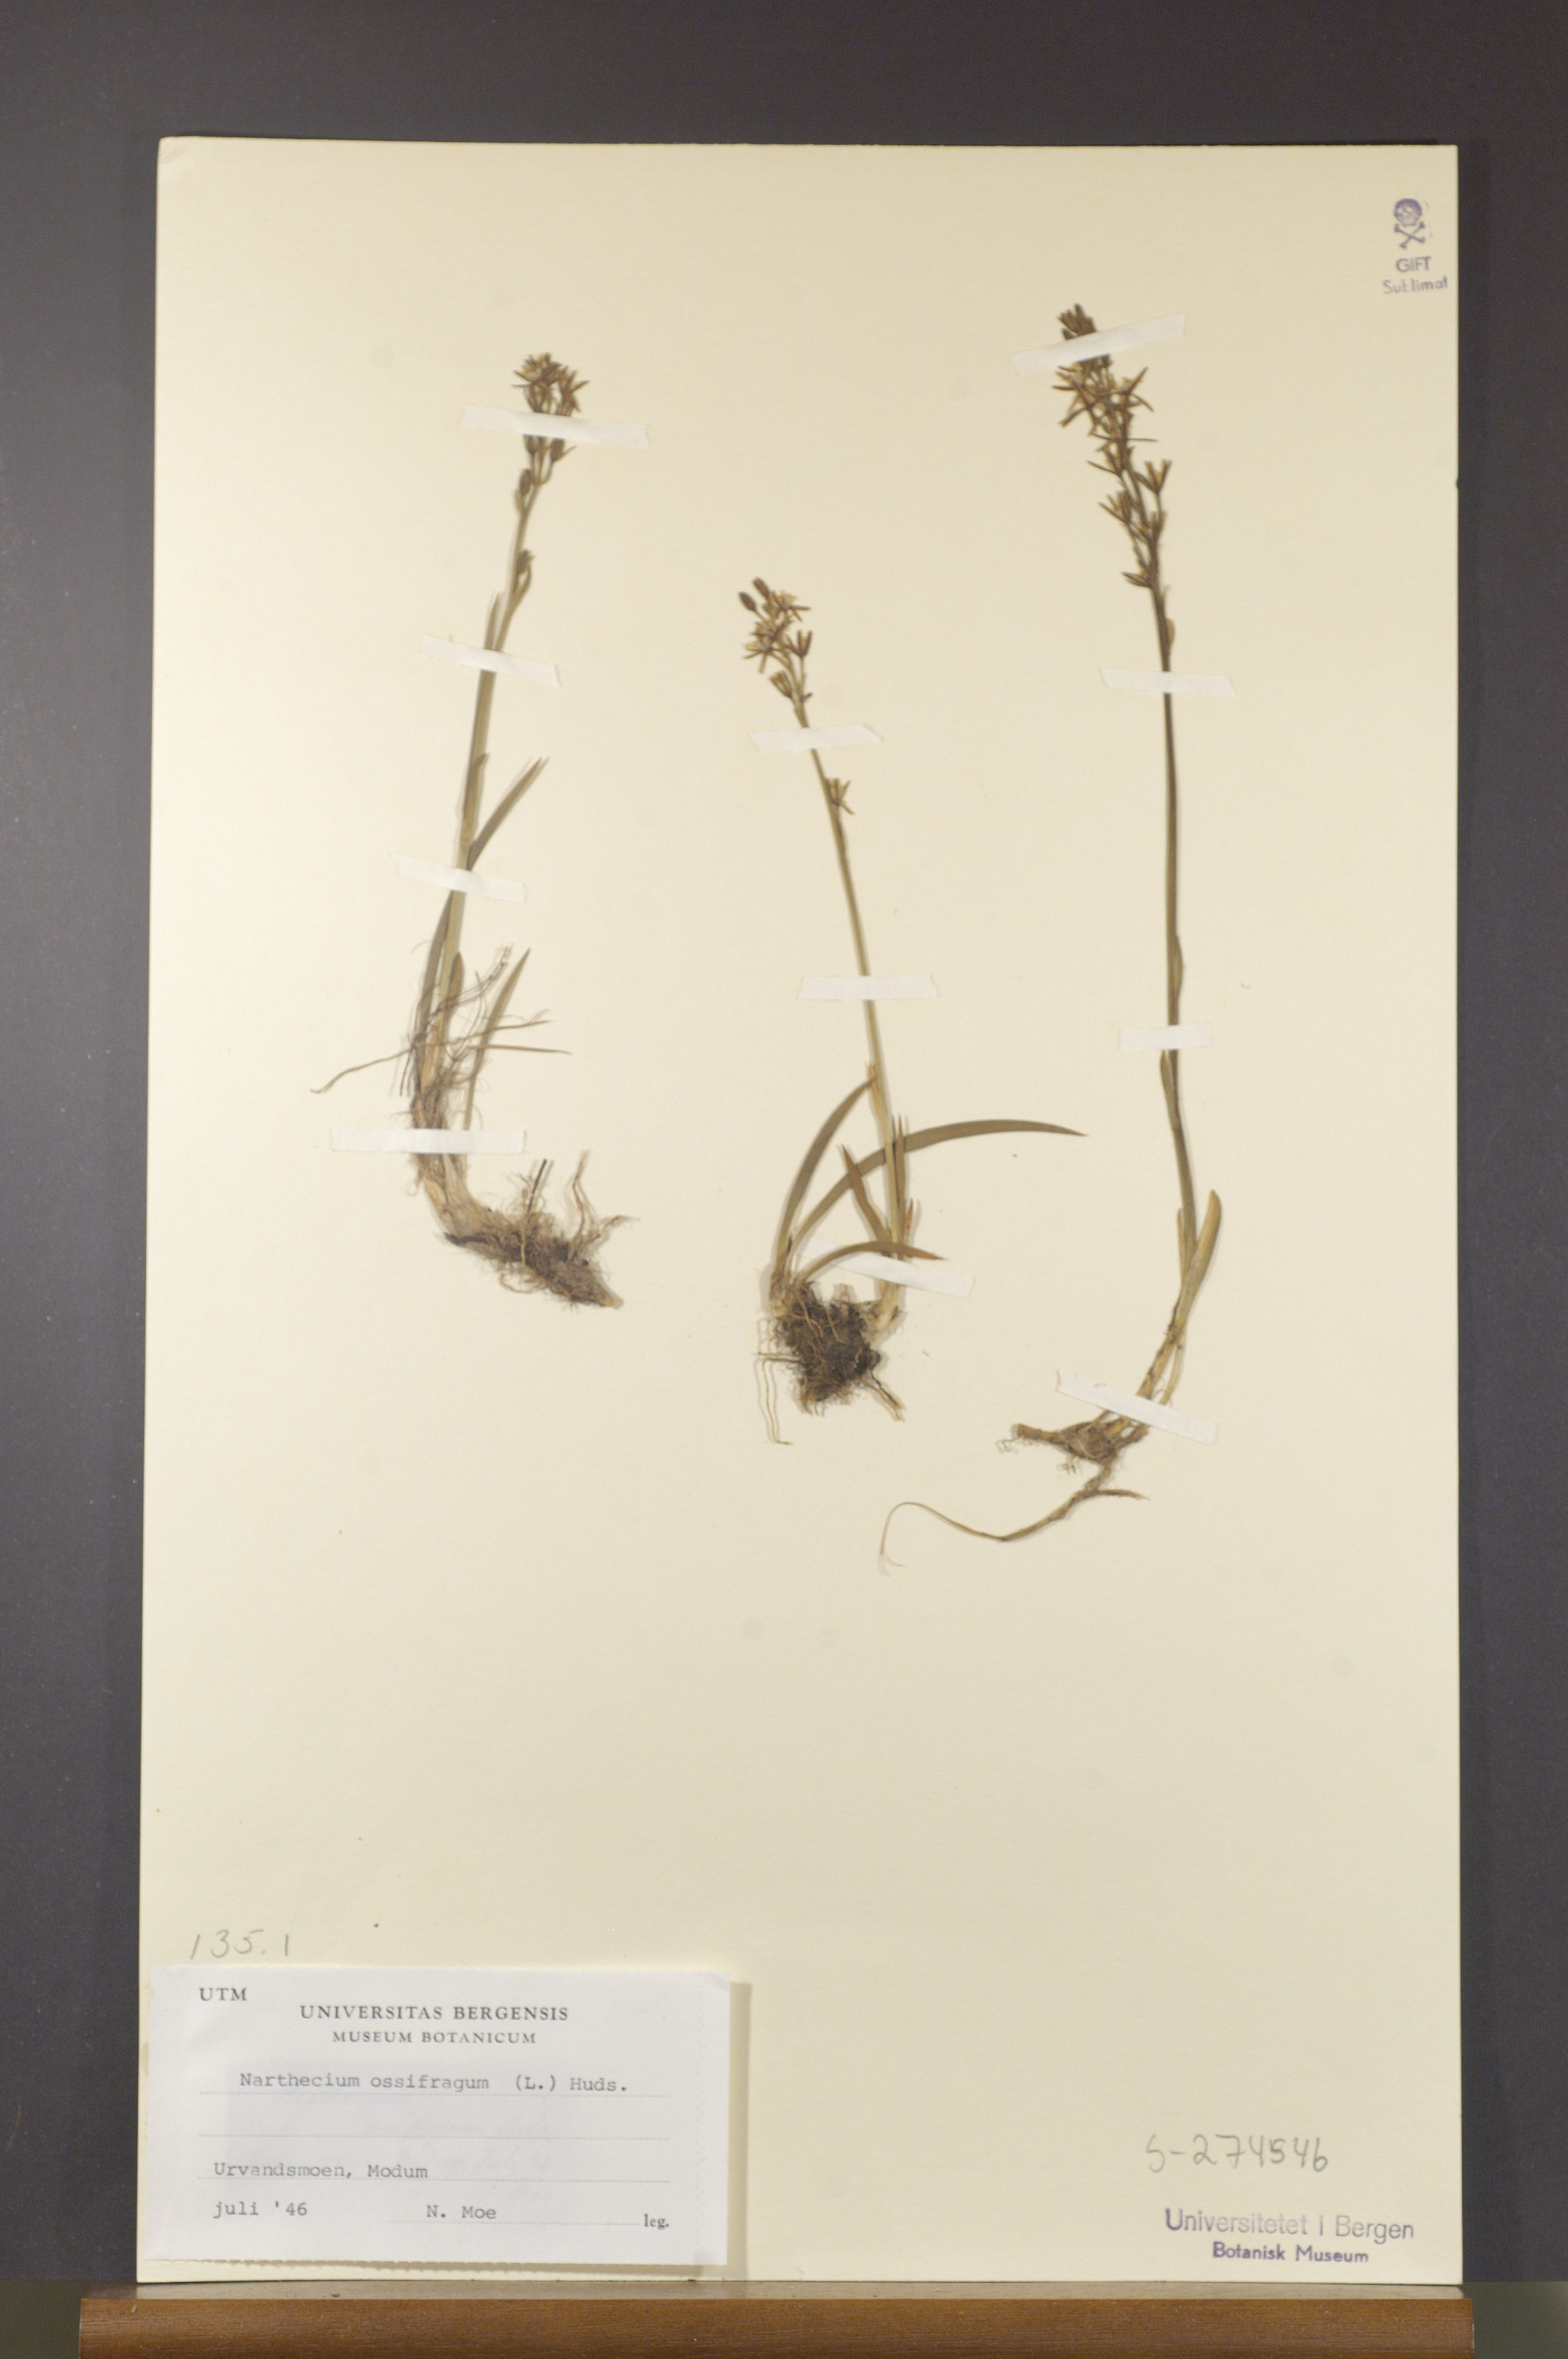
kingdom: Plantae
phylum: Tracheophyta
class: Liliopsida
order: Dioscoreales
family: Nartheciaceae
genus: Narthecium
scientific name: Narthecium ossifragum
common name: Bog asphodel
